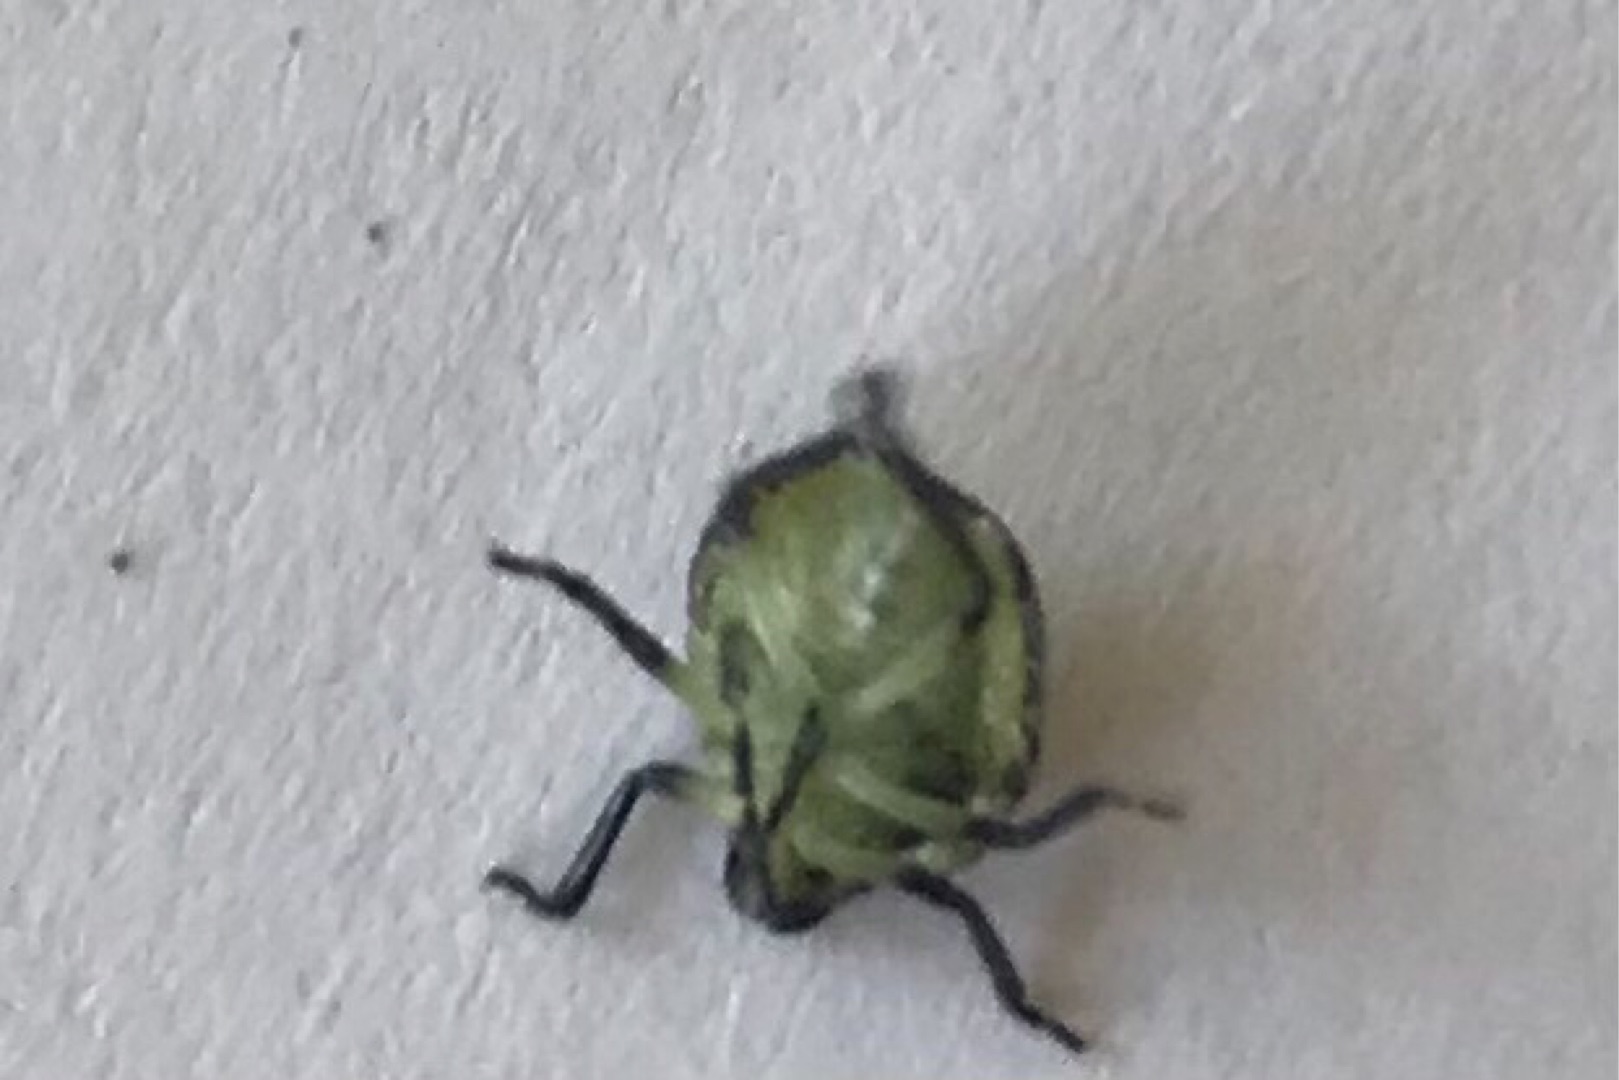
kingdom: Animalia
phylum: Arthropoda
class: Insecta
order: Hemiptera
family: Pentatomidae
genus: Palomena
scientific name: Palomena prasina
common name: Grøn bredtæge
